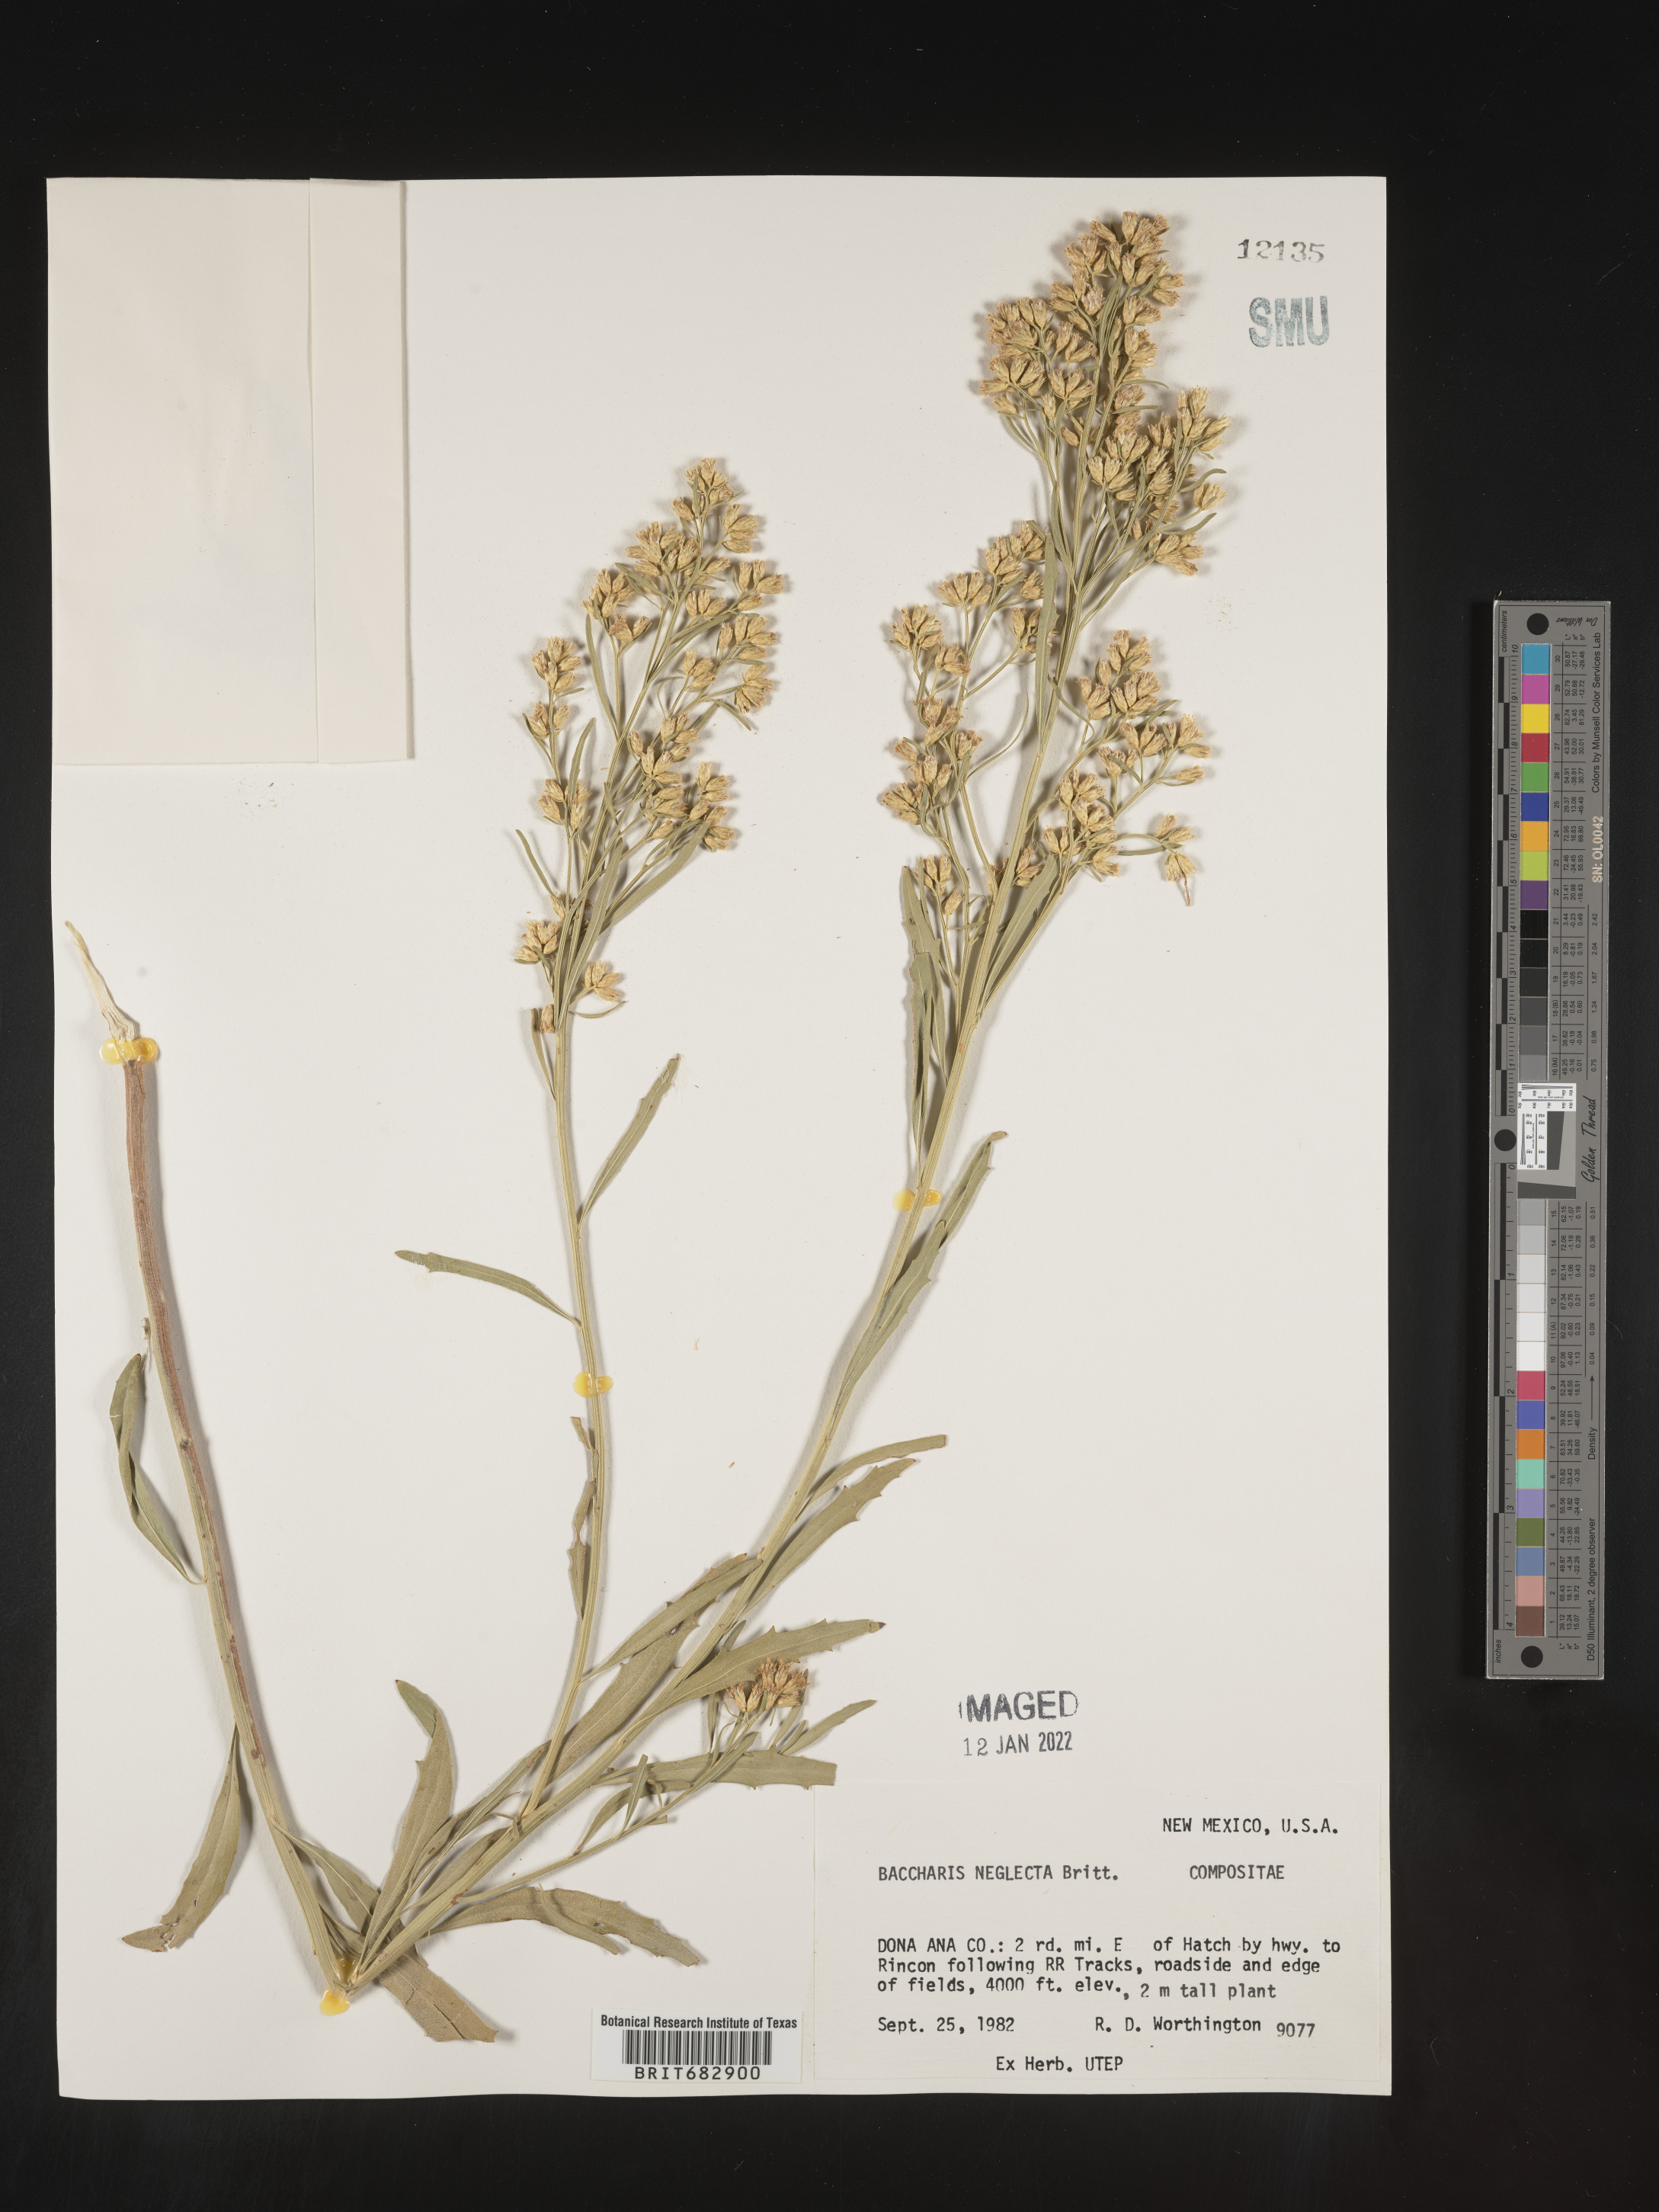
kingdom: Plantae
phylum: Tracheophyta
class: Magnoliopsida
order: Asterales
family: Asteraceae
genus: Baccharis
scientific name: Baccharis neglecta
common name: Roosevelt-weed
